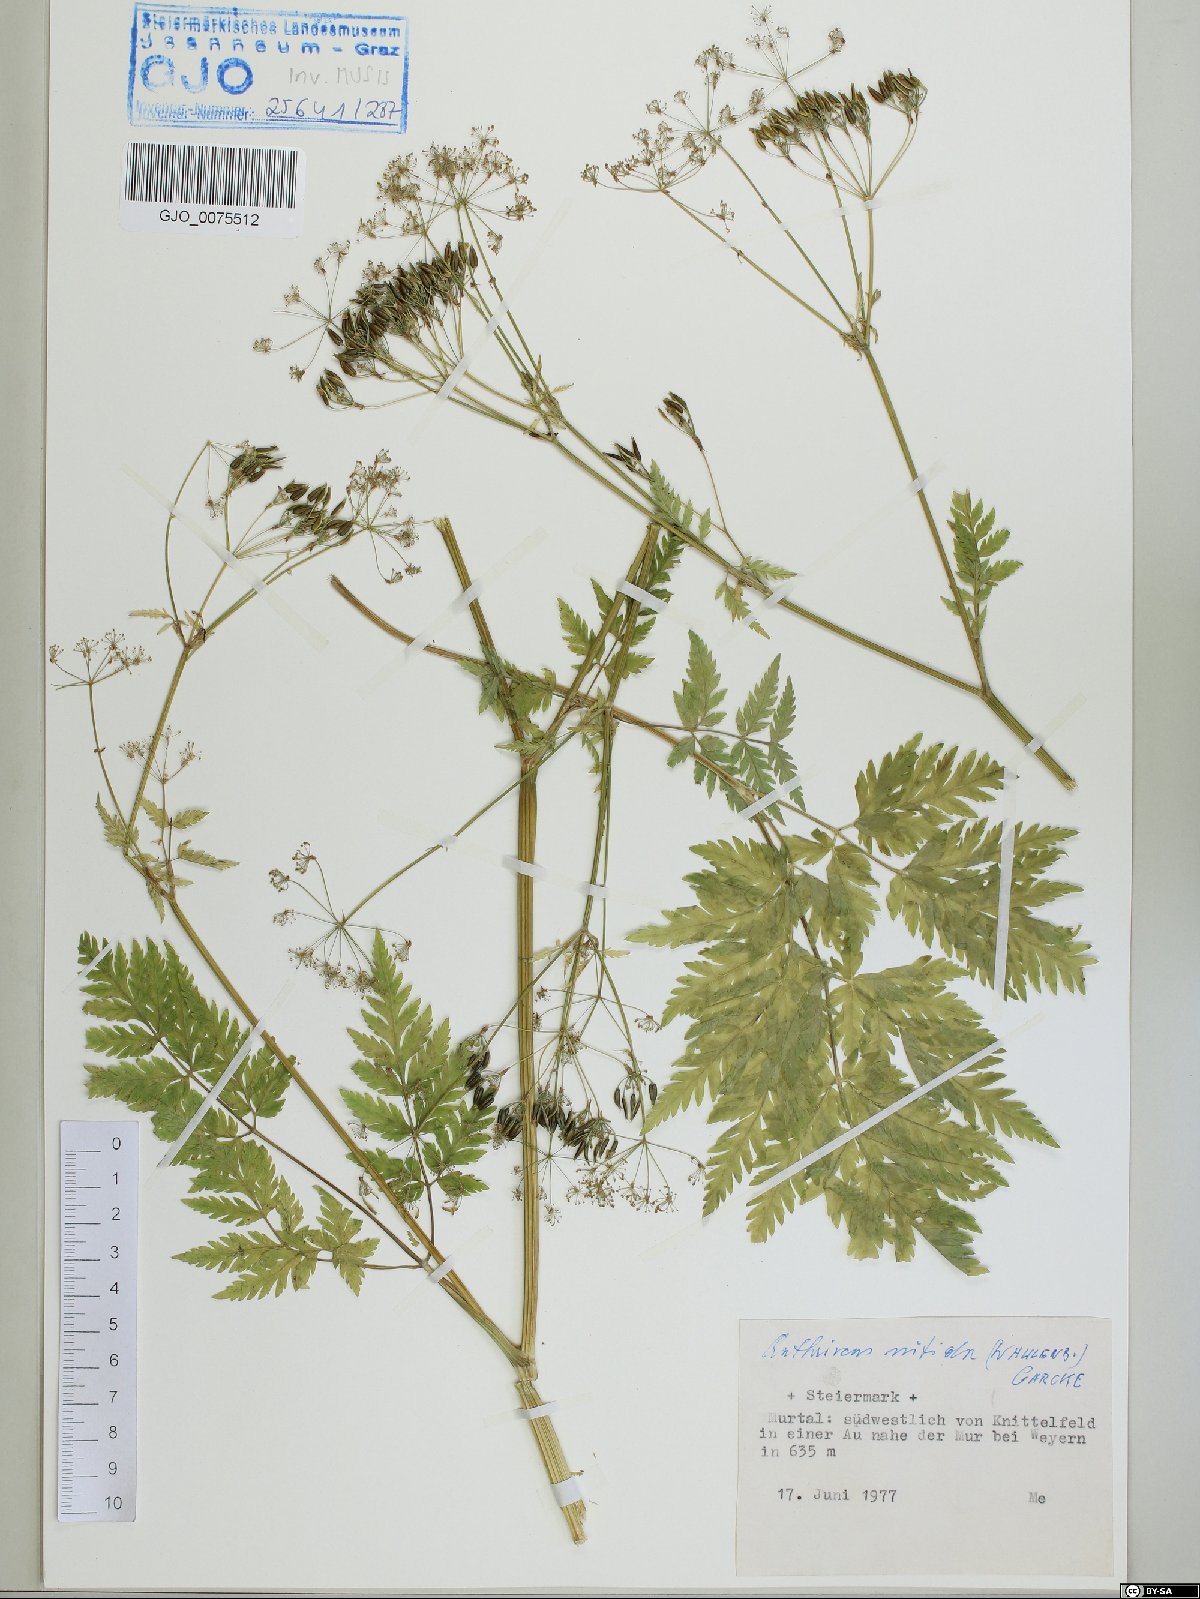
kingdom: Plantae
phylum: Tracheophyta
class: Magnoliopsida
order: Apiales
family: Apiaceae
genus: Anthriscus
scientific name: Anthriscus nitida
